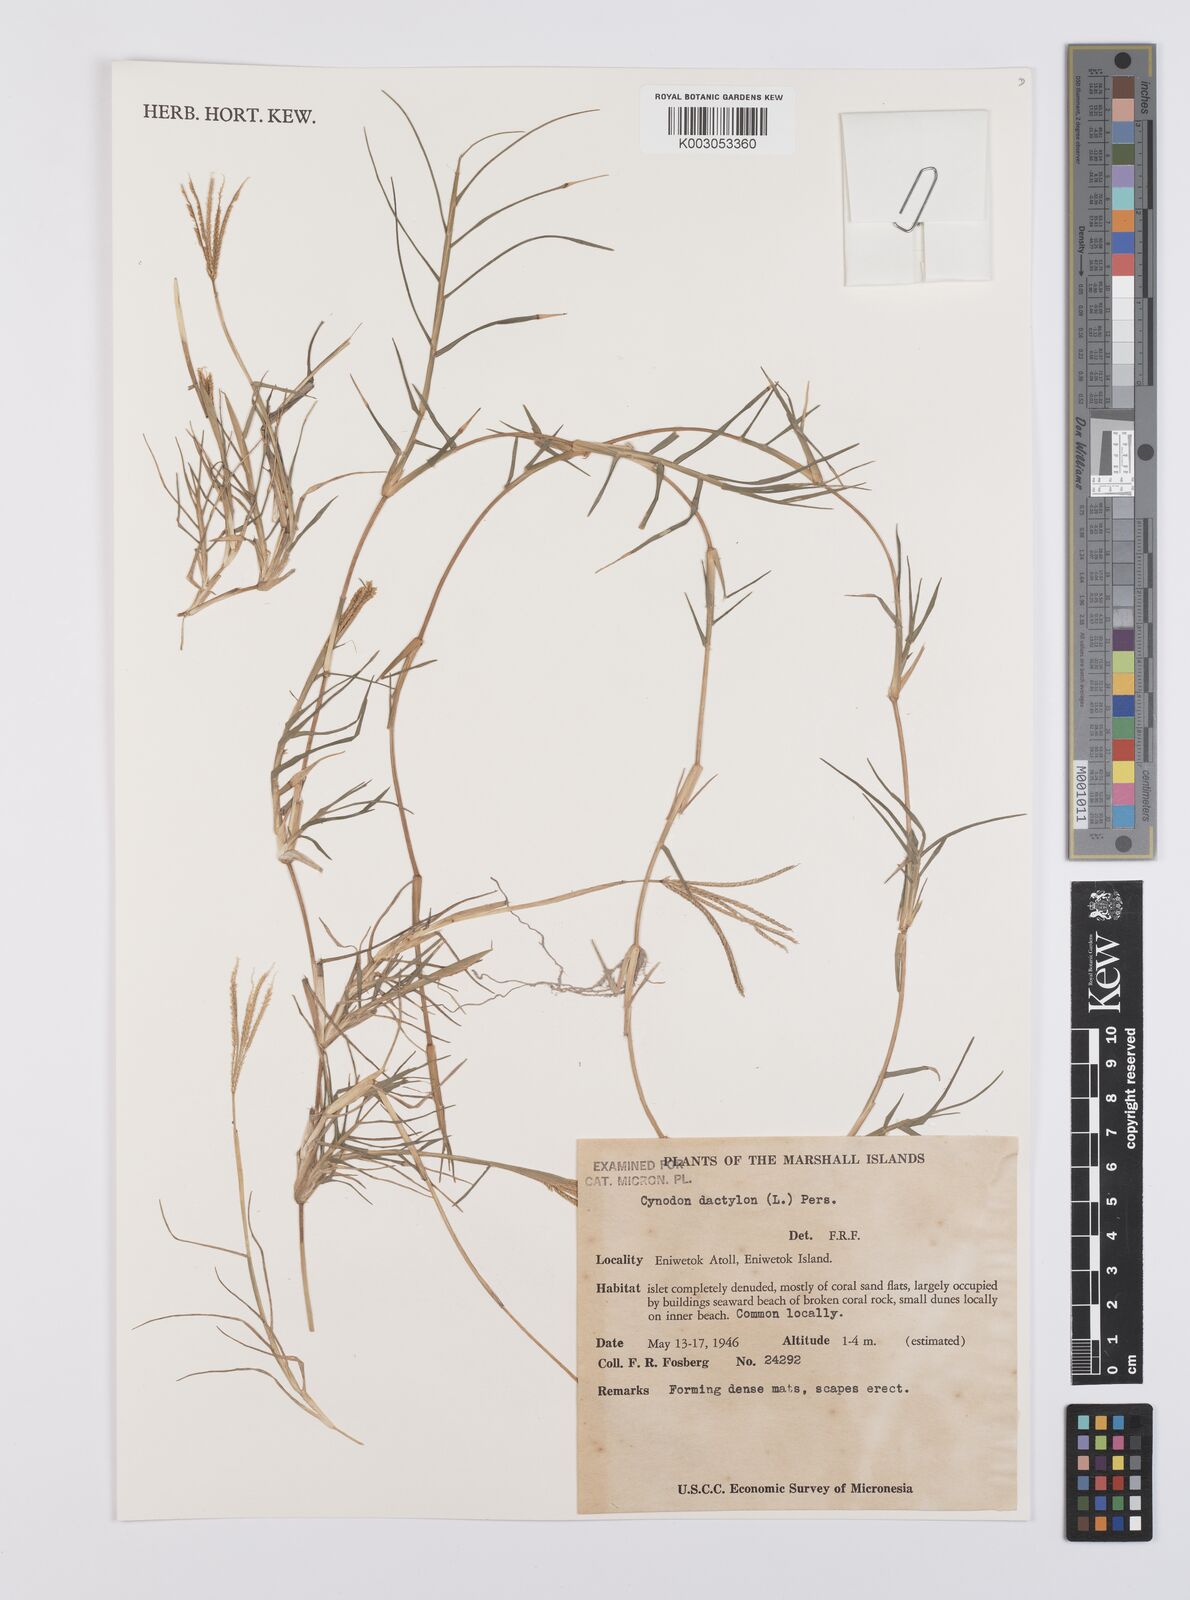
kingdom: Plantae
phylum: Tracheophyta
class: Liliopsida
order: Poales
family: Poaceae
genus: Cynodon
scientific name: Cynodon dactylon
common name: Bermuda grass
